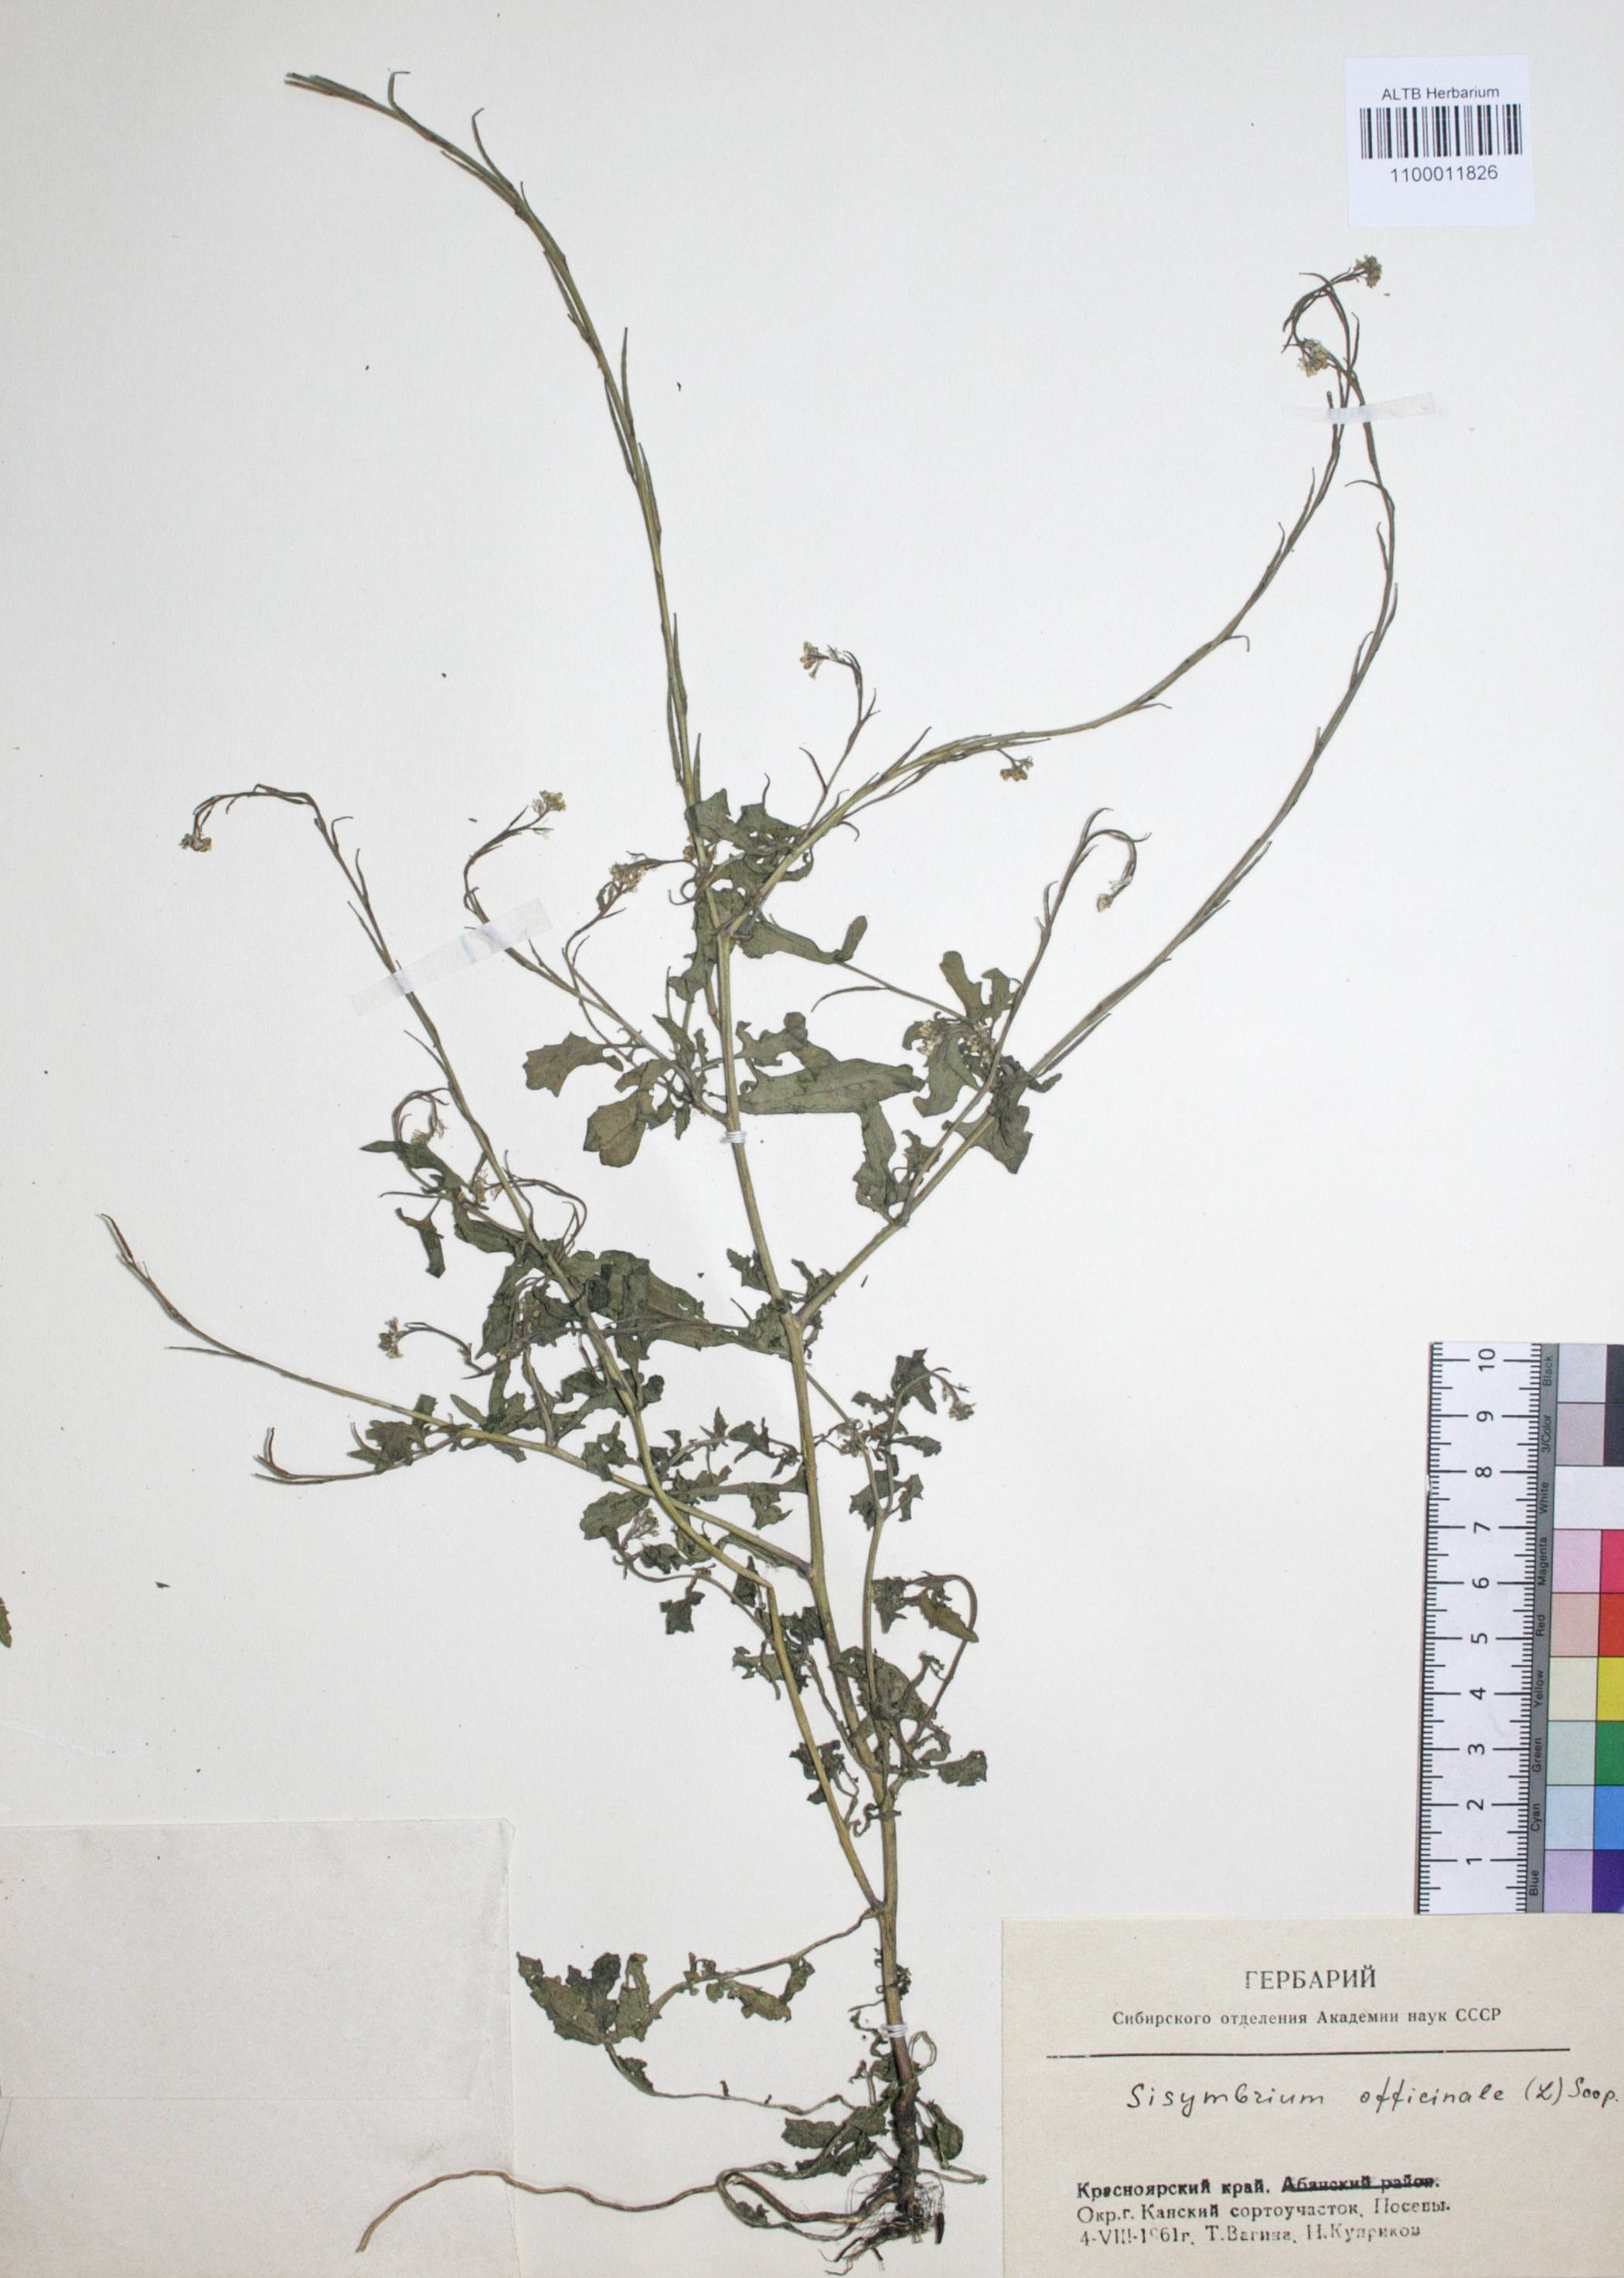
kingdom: Plantae
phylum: Tracheophyta
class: Magnoliopsida
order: Brassicales
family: Brassicaceae
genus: Sisymbrium
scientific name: Sisymbrium officinale
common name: Hedge mustard
